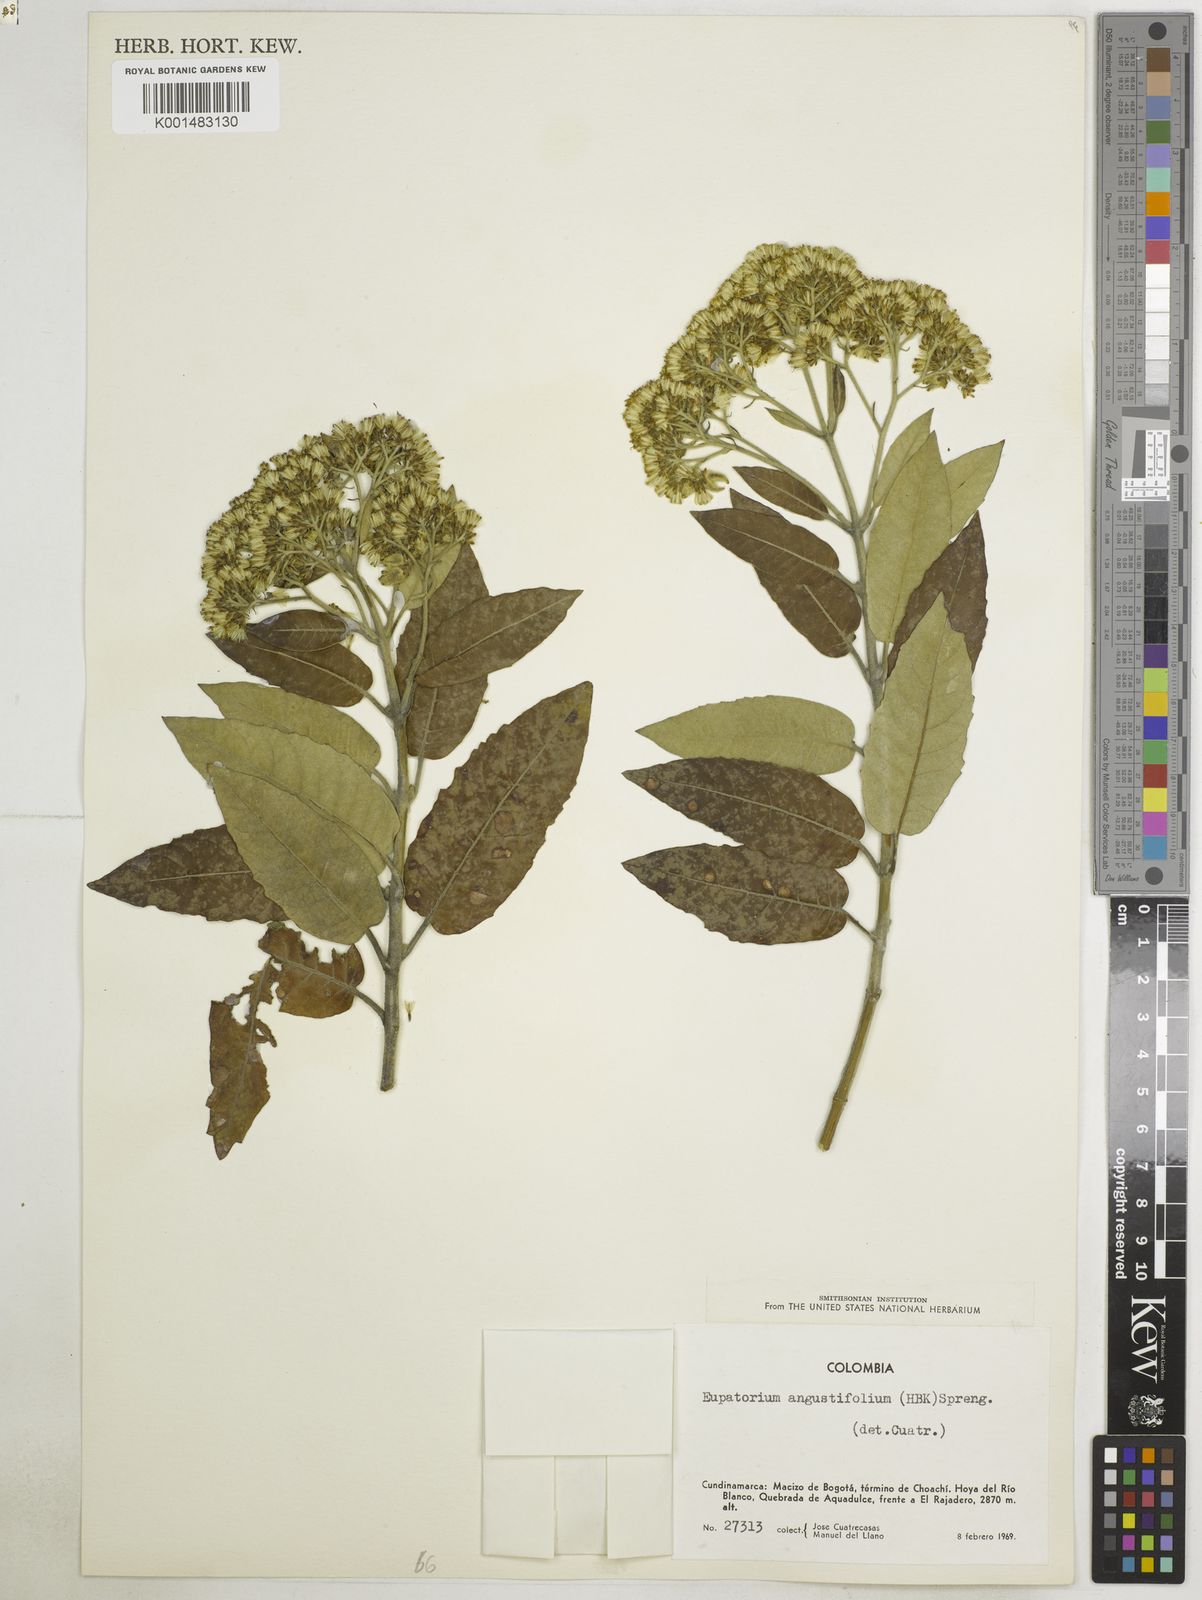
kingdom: Plantae
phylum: Tracheophyta
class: Magnoliopsida
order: Asterales
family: Asteraceae
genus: Ageratina
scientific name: Ageratina asclepiadea
